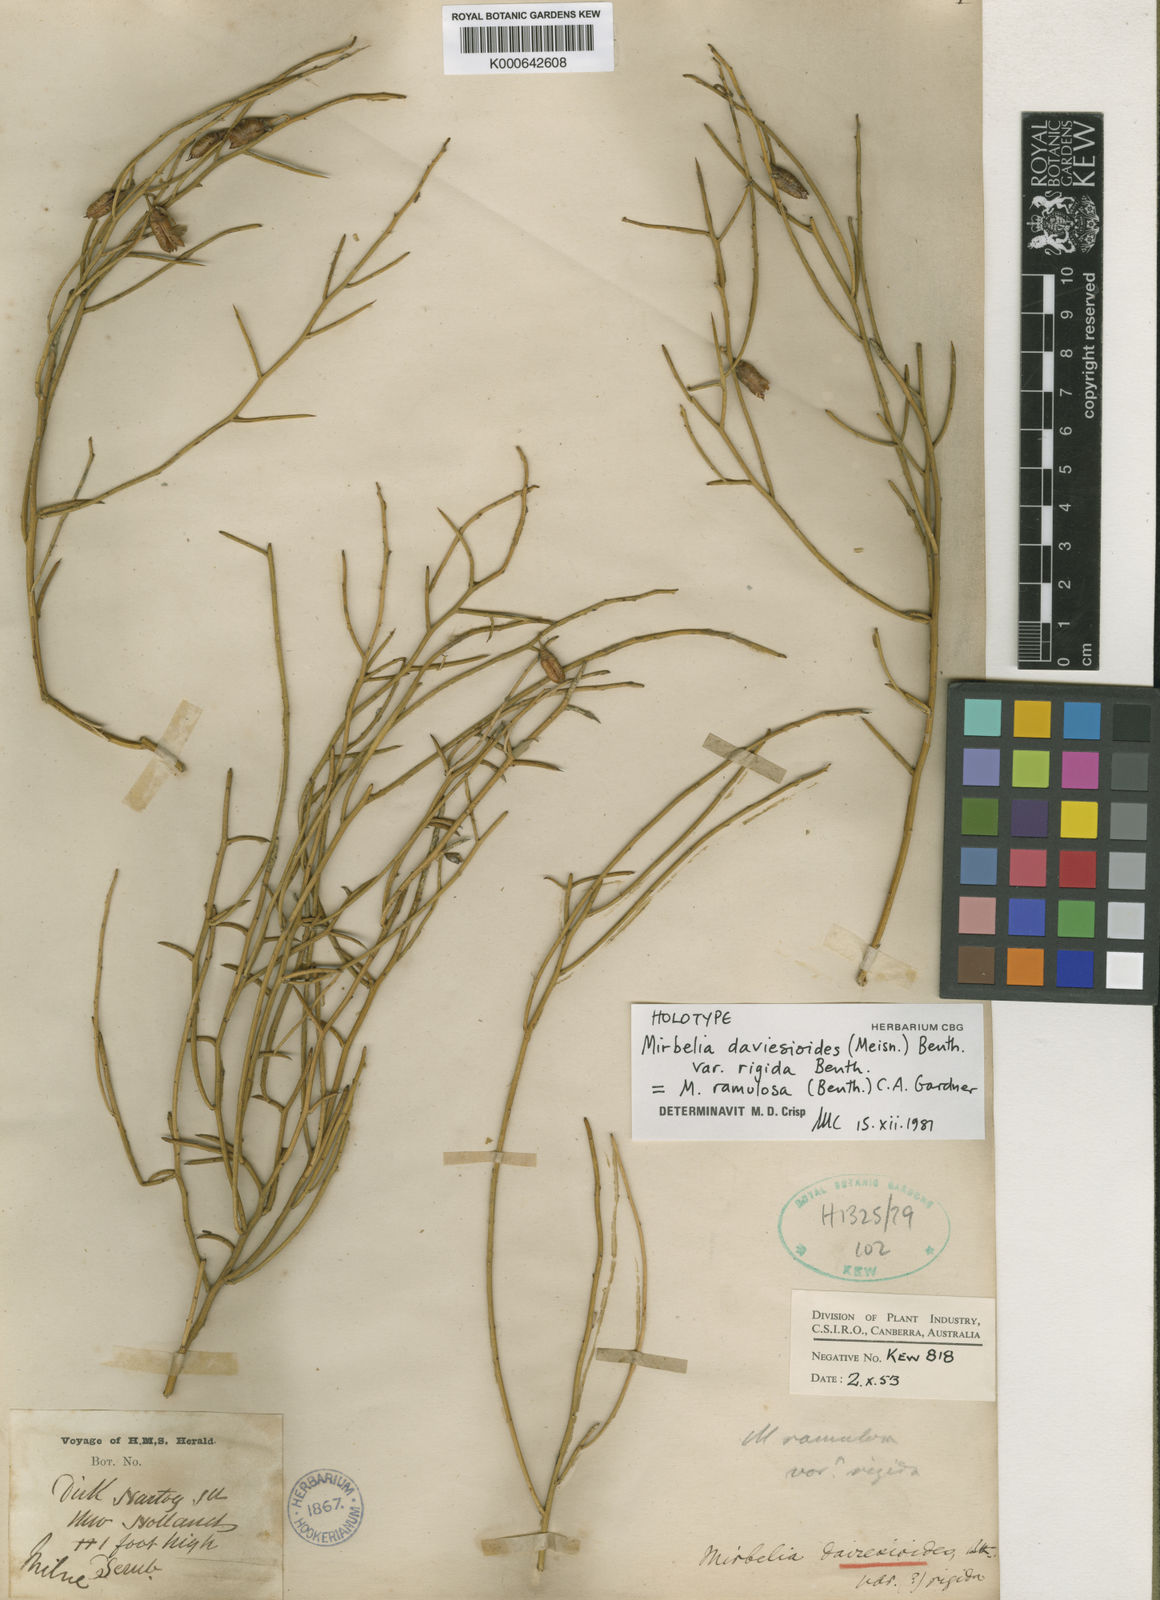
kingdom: Plantae
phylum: Tracheophyta
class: Magnoliopsida
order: Fabales
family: Fabaceae
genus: Mirbelia
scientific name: Mirbelia ramulosa
